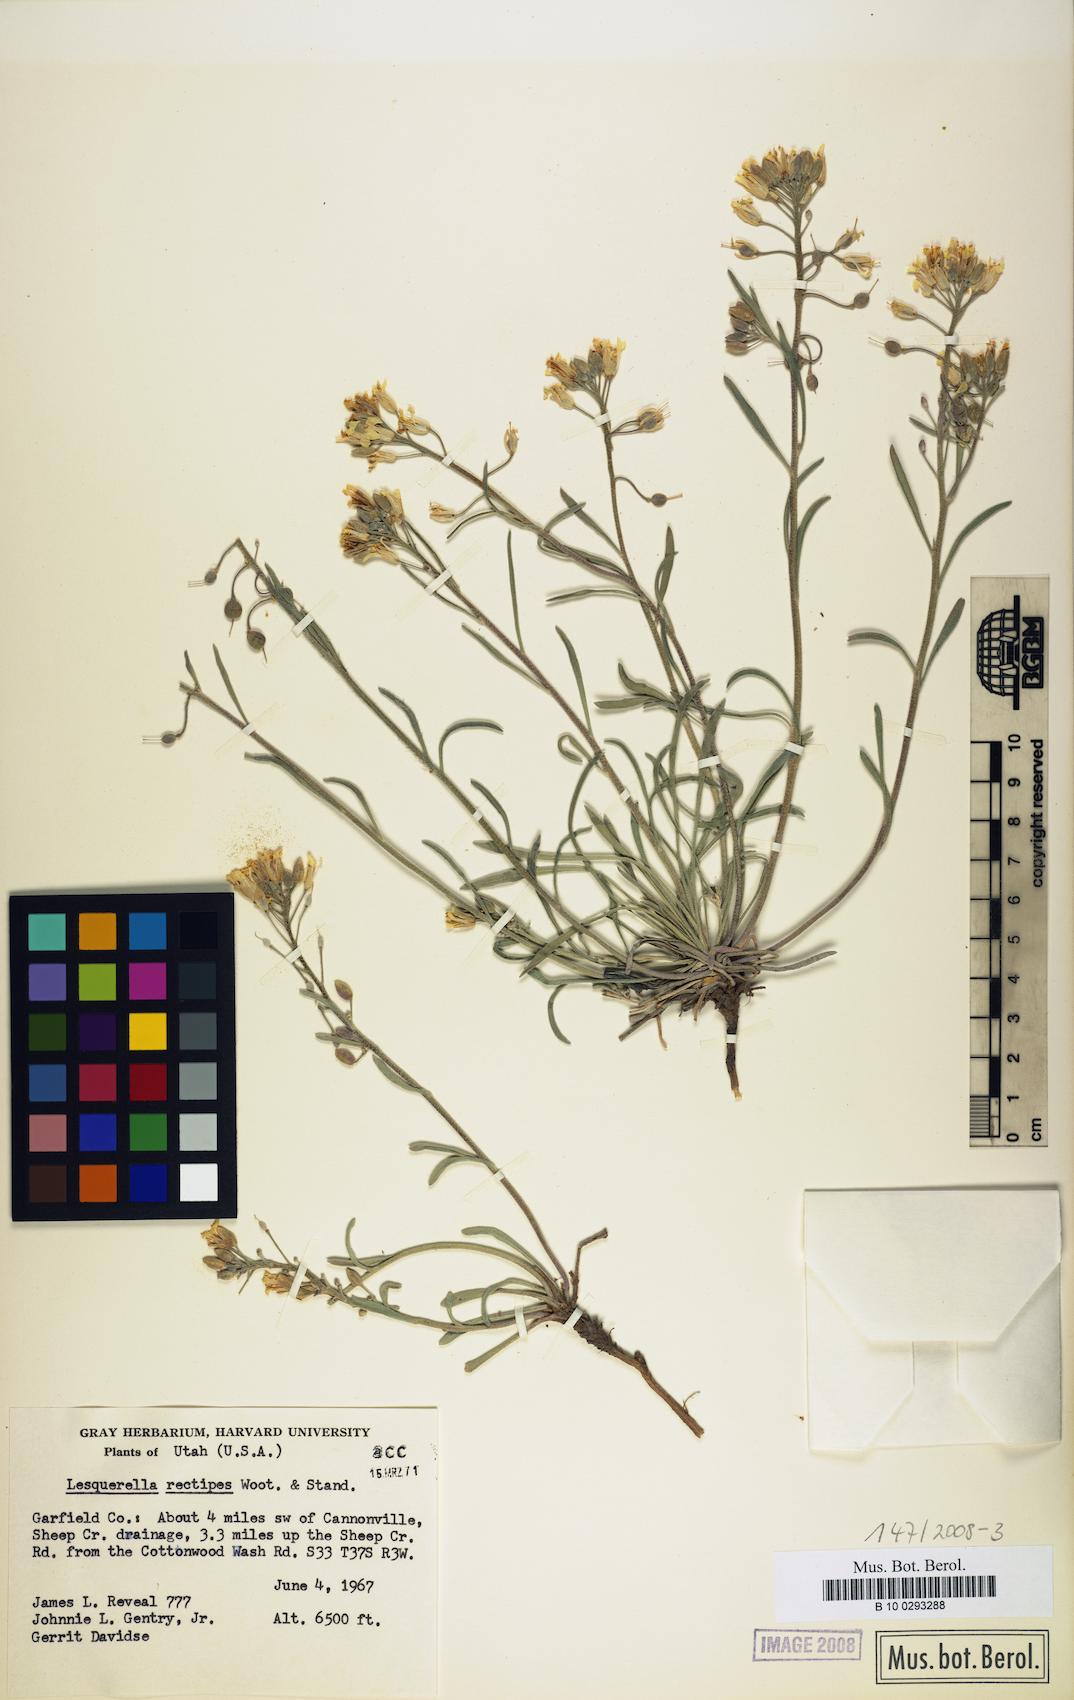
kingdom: Plantae
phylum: Tracheophyta
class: Magnoliopsida
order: Brassicales
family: Brassicaceae
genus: Physaria
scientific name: Physaria rectipes
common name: Colorado bladderpod
